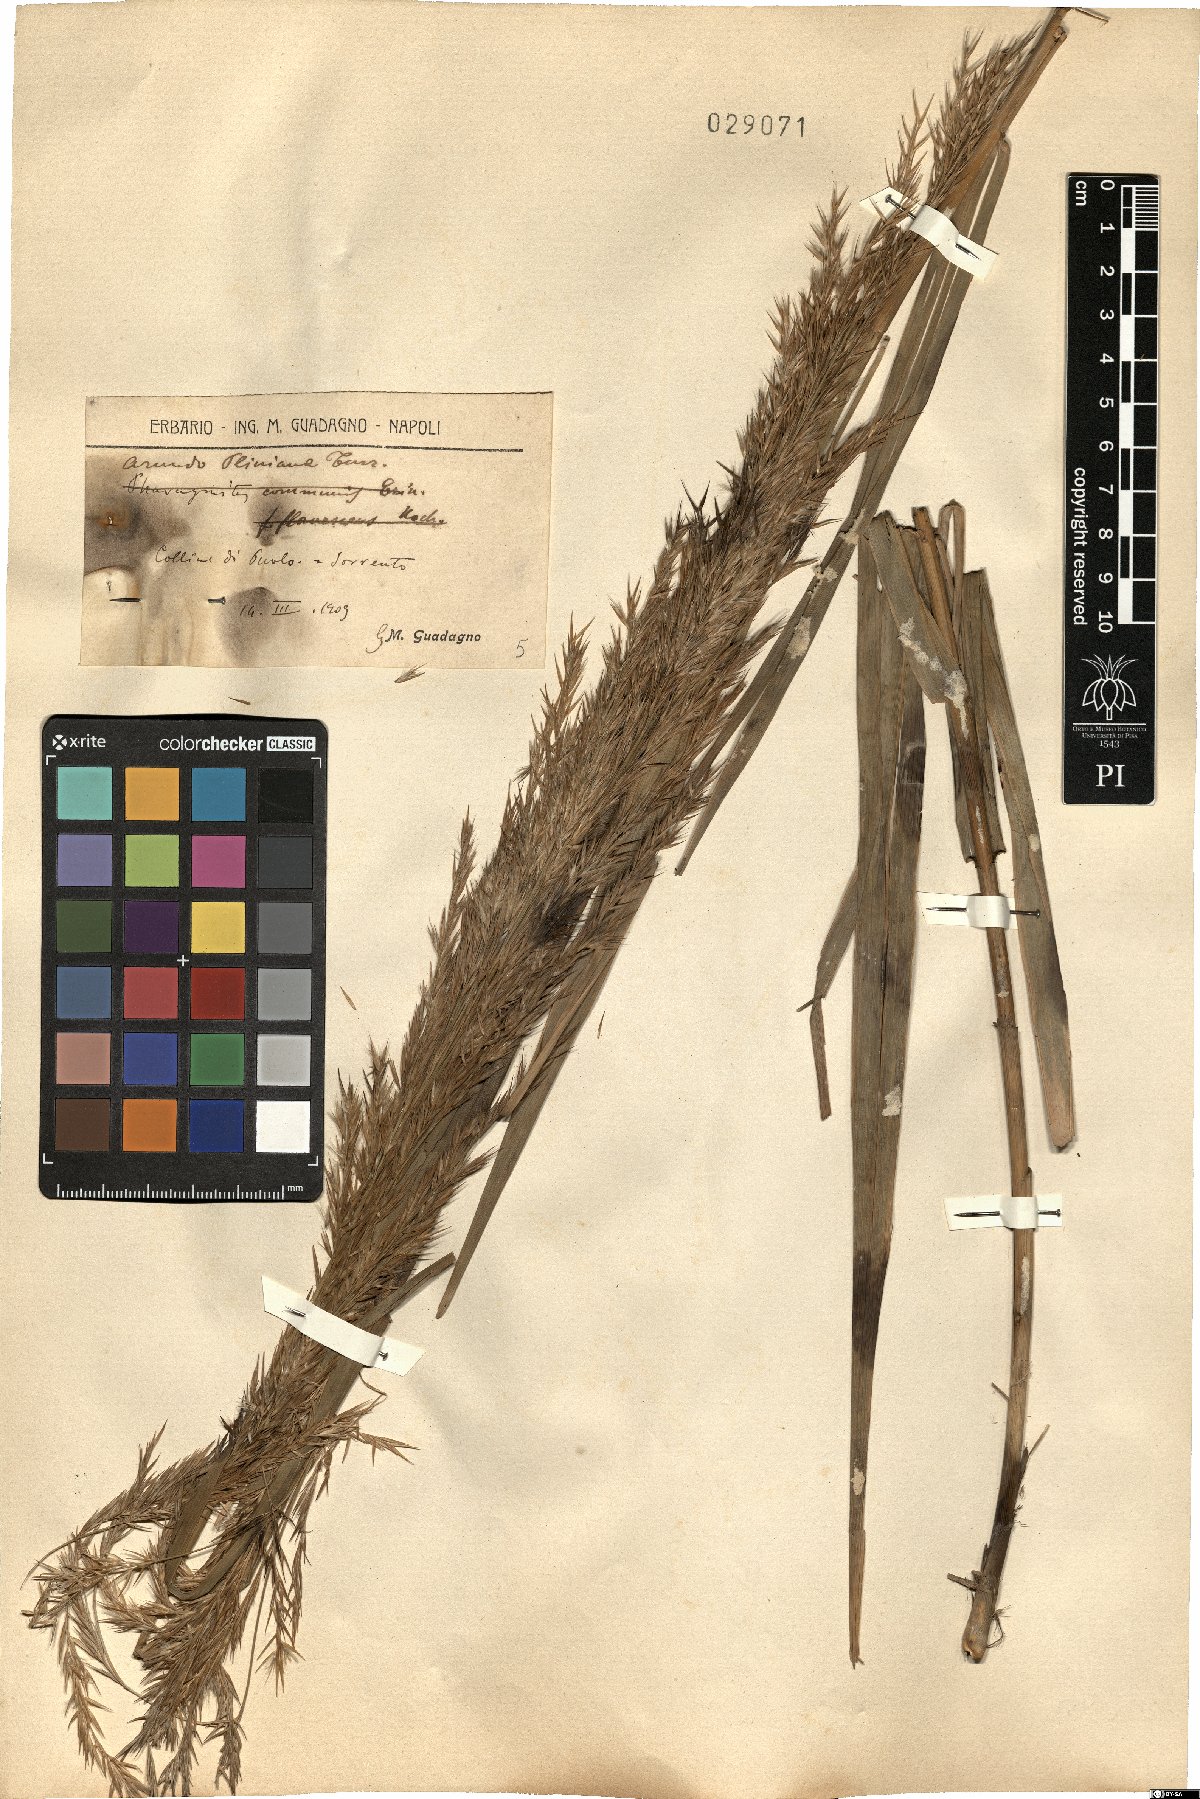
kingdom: Plantae
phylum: Tracheophyta
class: Liliopsida
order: Poales
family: Poaceae
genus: Arundo
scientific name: Arundo plinii
